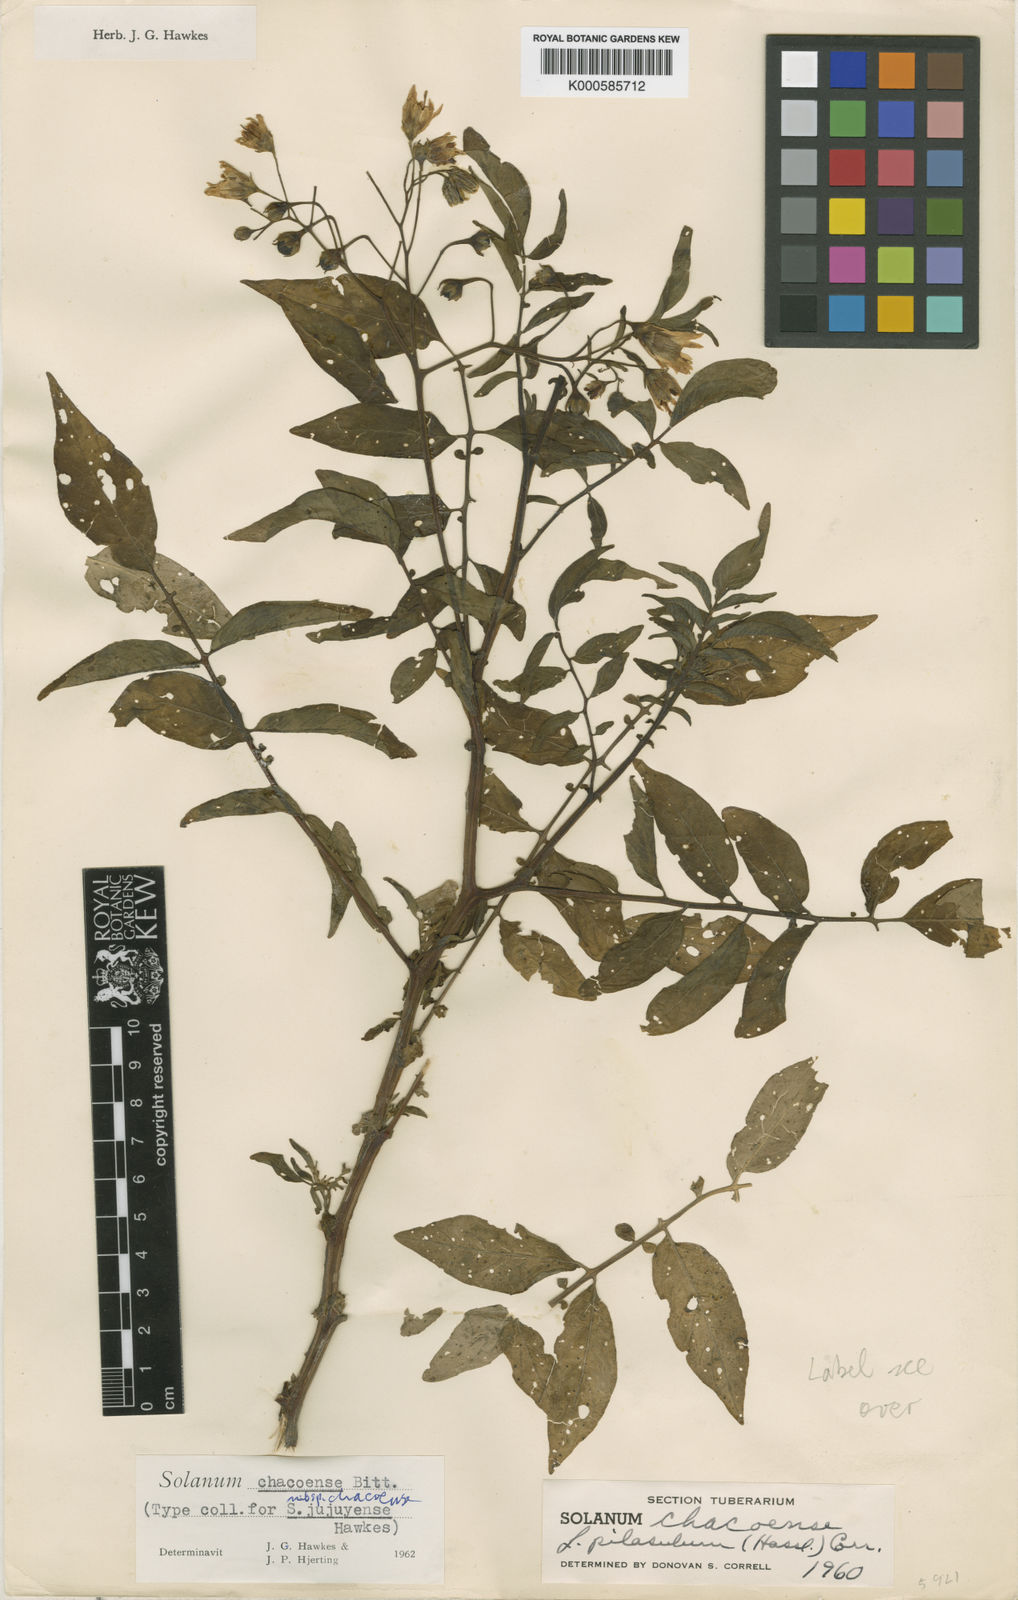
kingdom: Plantae
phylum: Tracheophyta
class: Magnoliopsida
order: Solanales
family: Solanaceae
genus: Solanum
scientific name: Solanum
